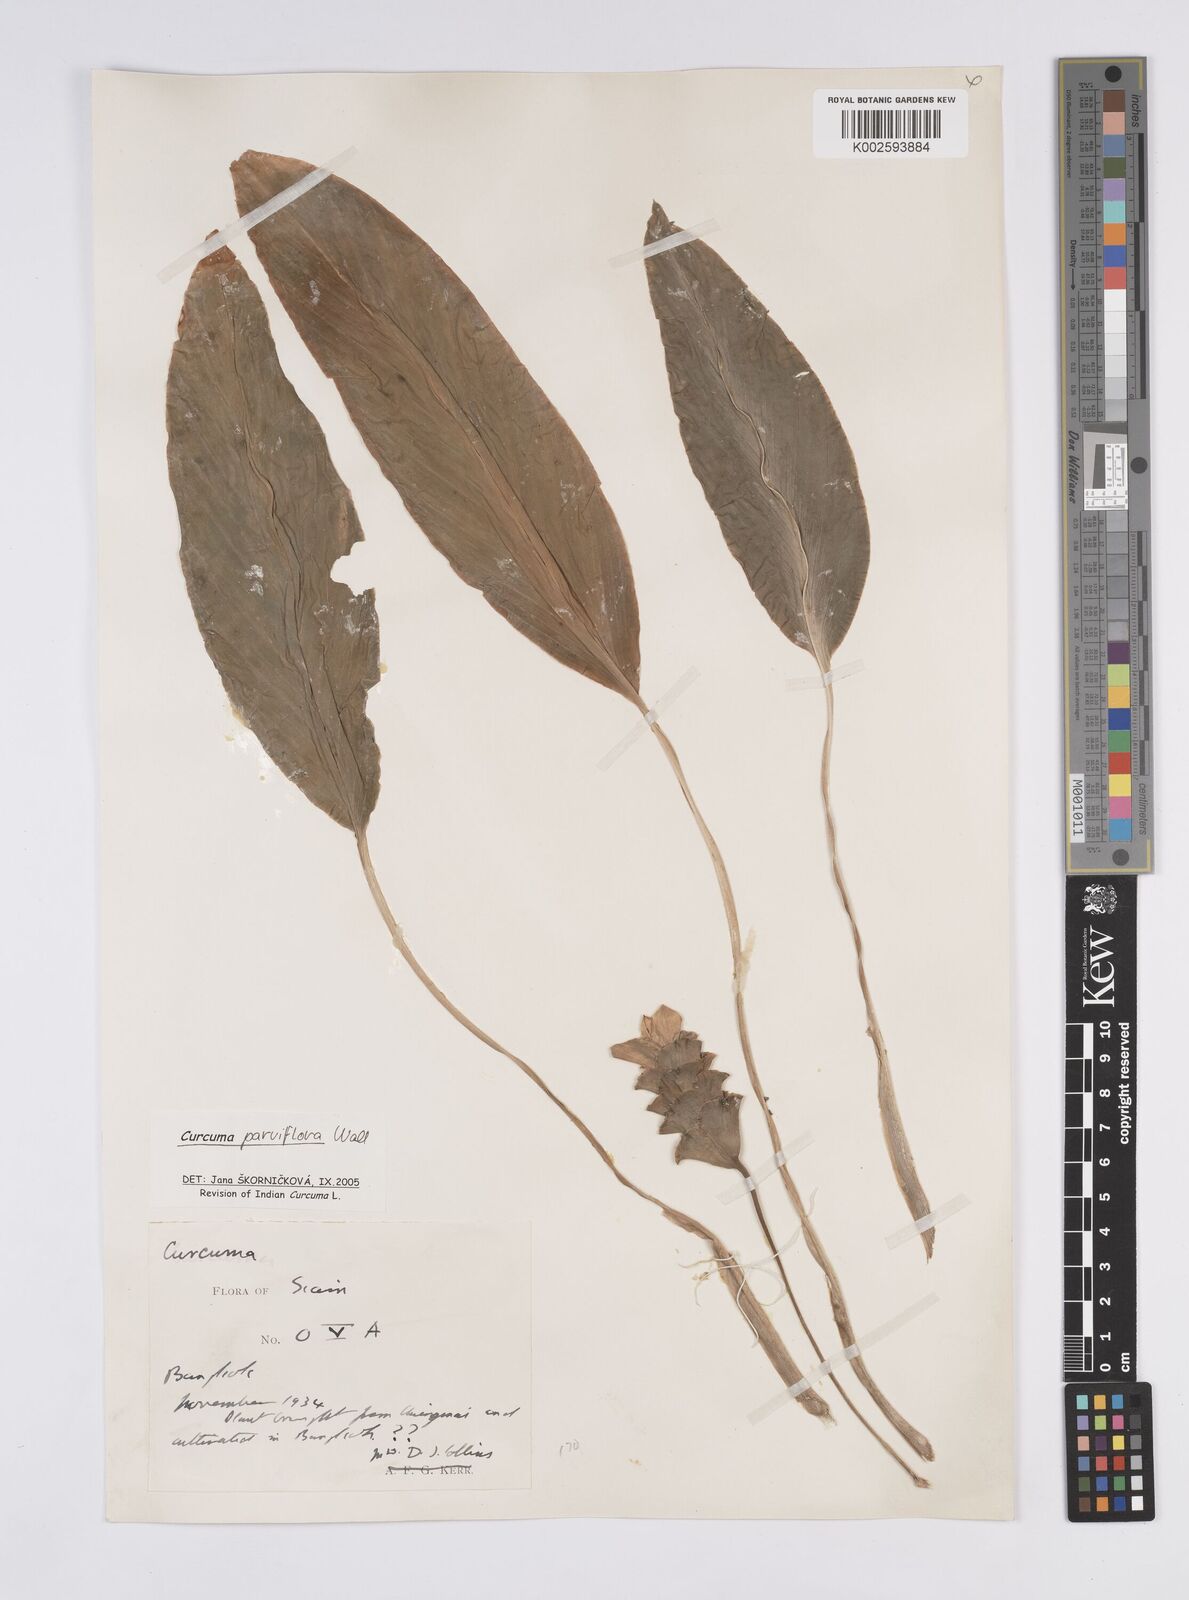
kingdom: Plantae
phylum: Tracheophyta
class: Liliopsida
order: Zingiberales
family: Zingiberaceae
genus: Curcuma
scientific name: Curcuma parviflora
